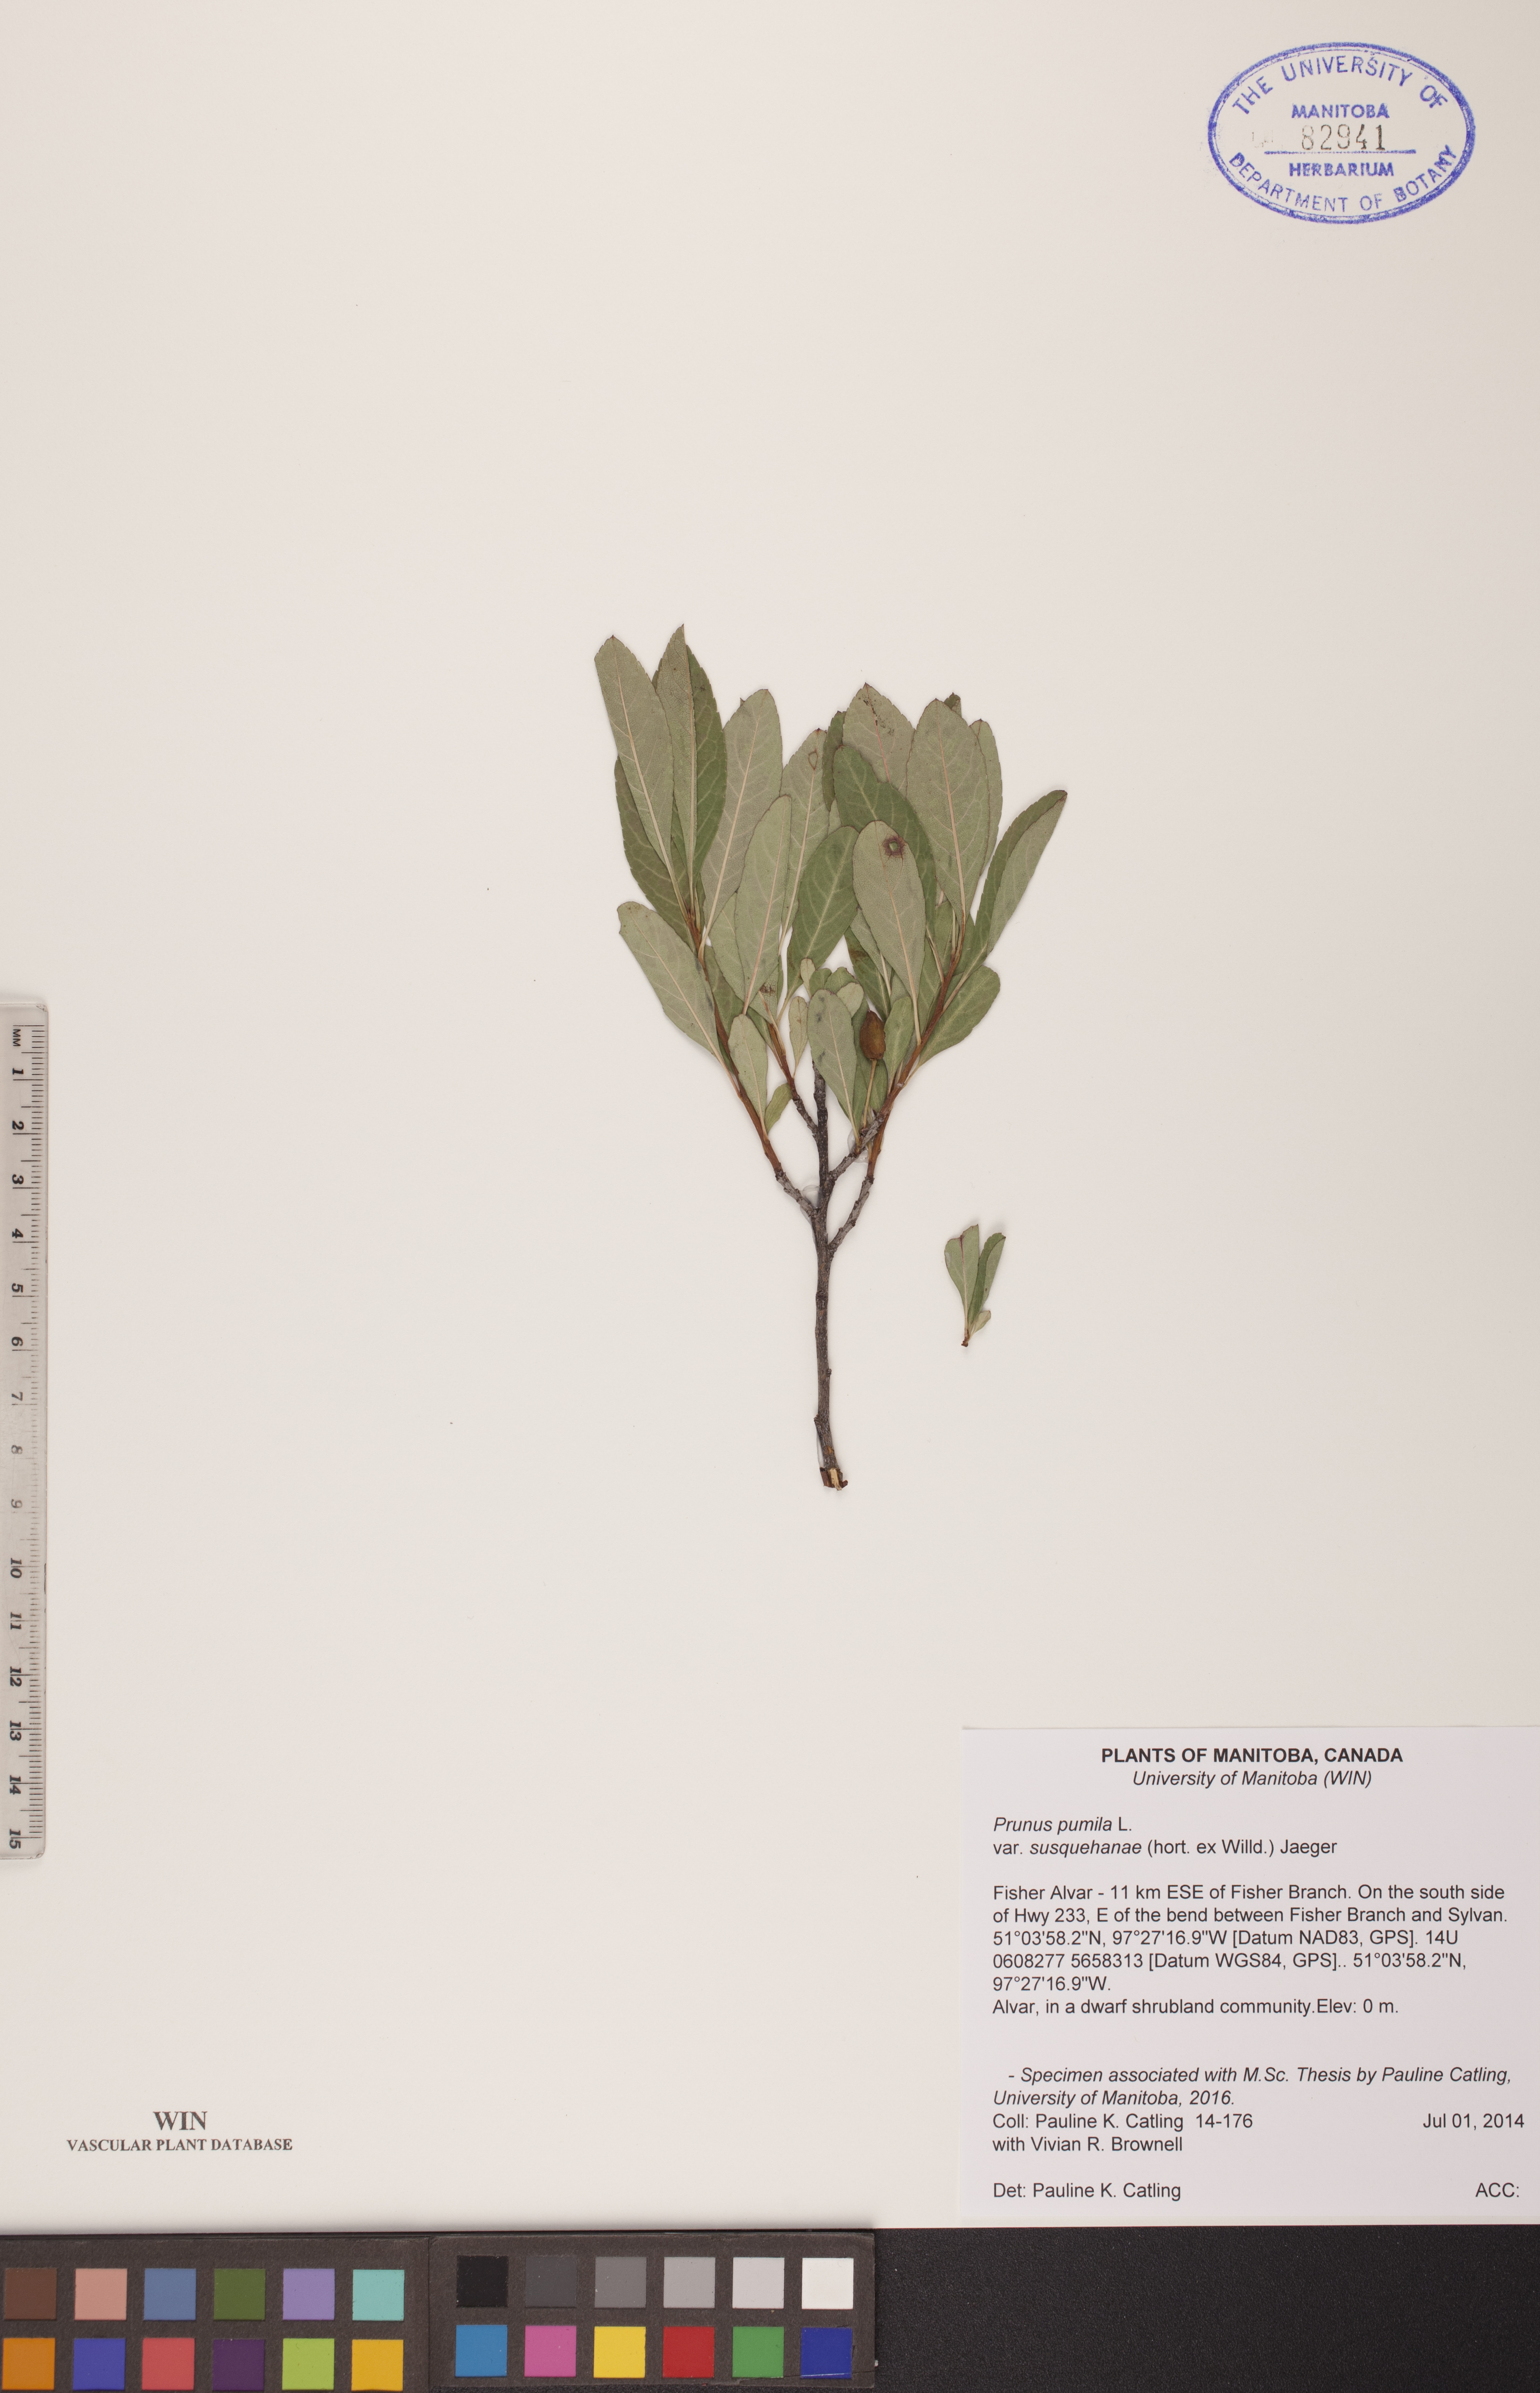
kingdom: Plantae
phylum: Tracheophyta
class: Magnoliopsida
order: Rosales
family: Rosaceae
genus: Prunus
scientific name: Prunus susquehanae
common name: Sesquehana sandcherry
